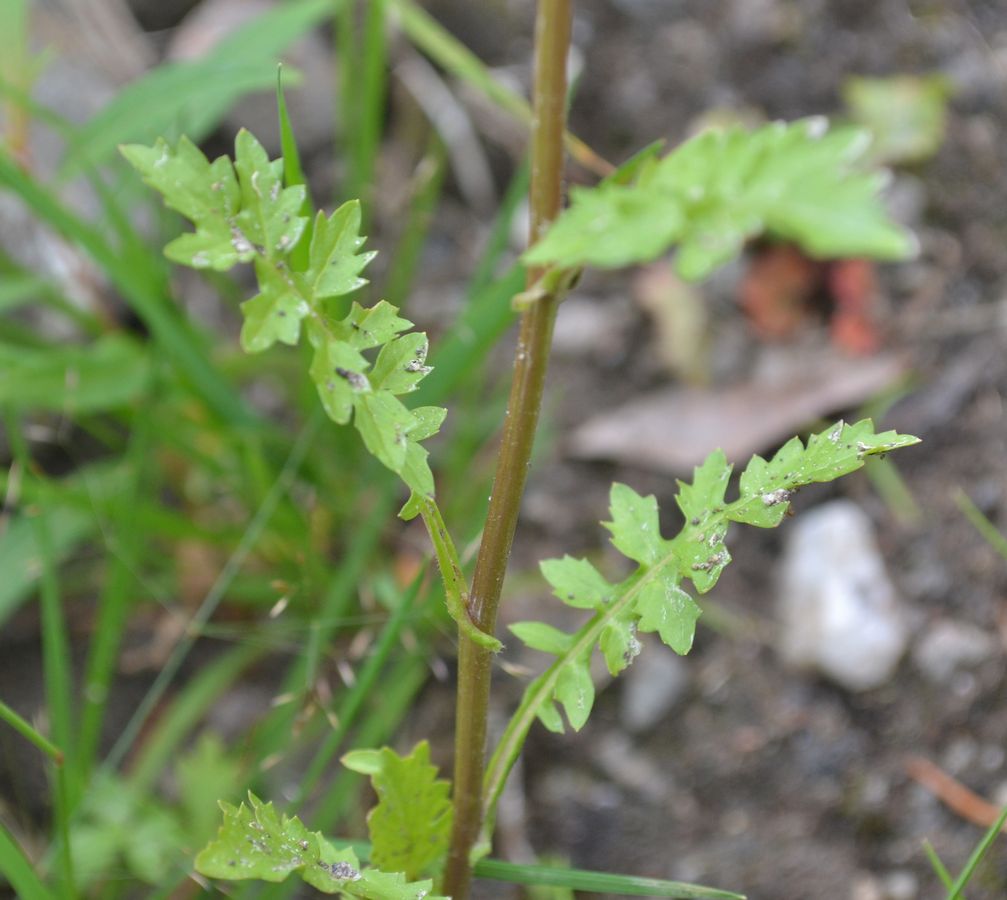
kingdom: Plantae
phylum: Tracheophyta
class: Magnoliopsida
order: Brassicales
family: Brassicaceae
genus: Rorippa
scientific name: Rorippa palustris
